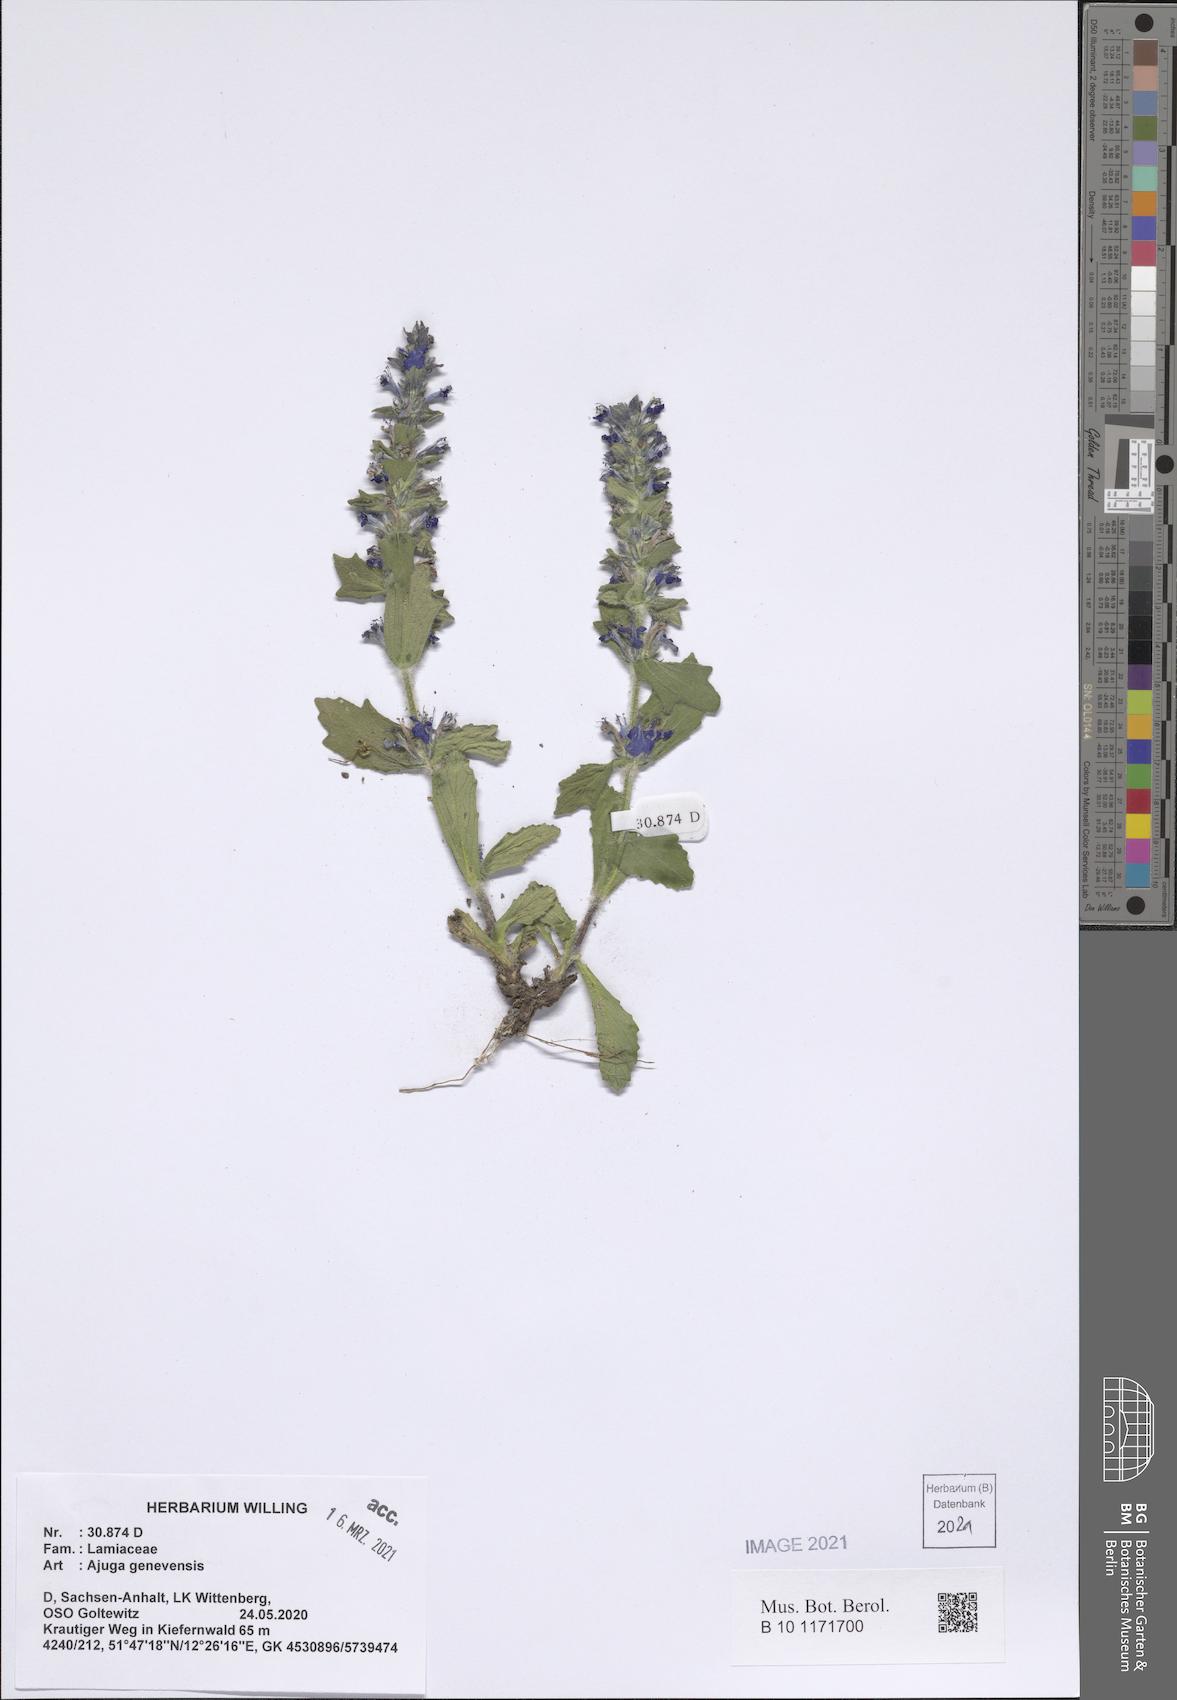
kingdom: Plantae
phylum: Tracheophyta
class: Magnoliopsida
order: Lamiales
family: Lamiaceae
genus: Ajuga
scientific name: Ajuga genevensis
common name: Blue bugle
